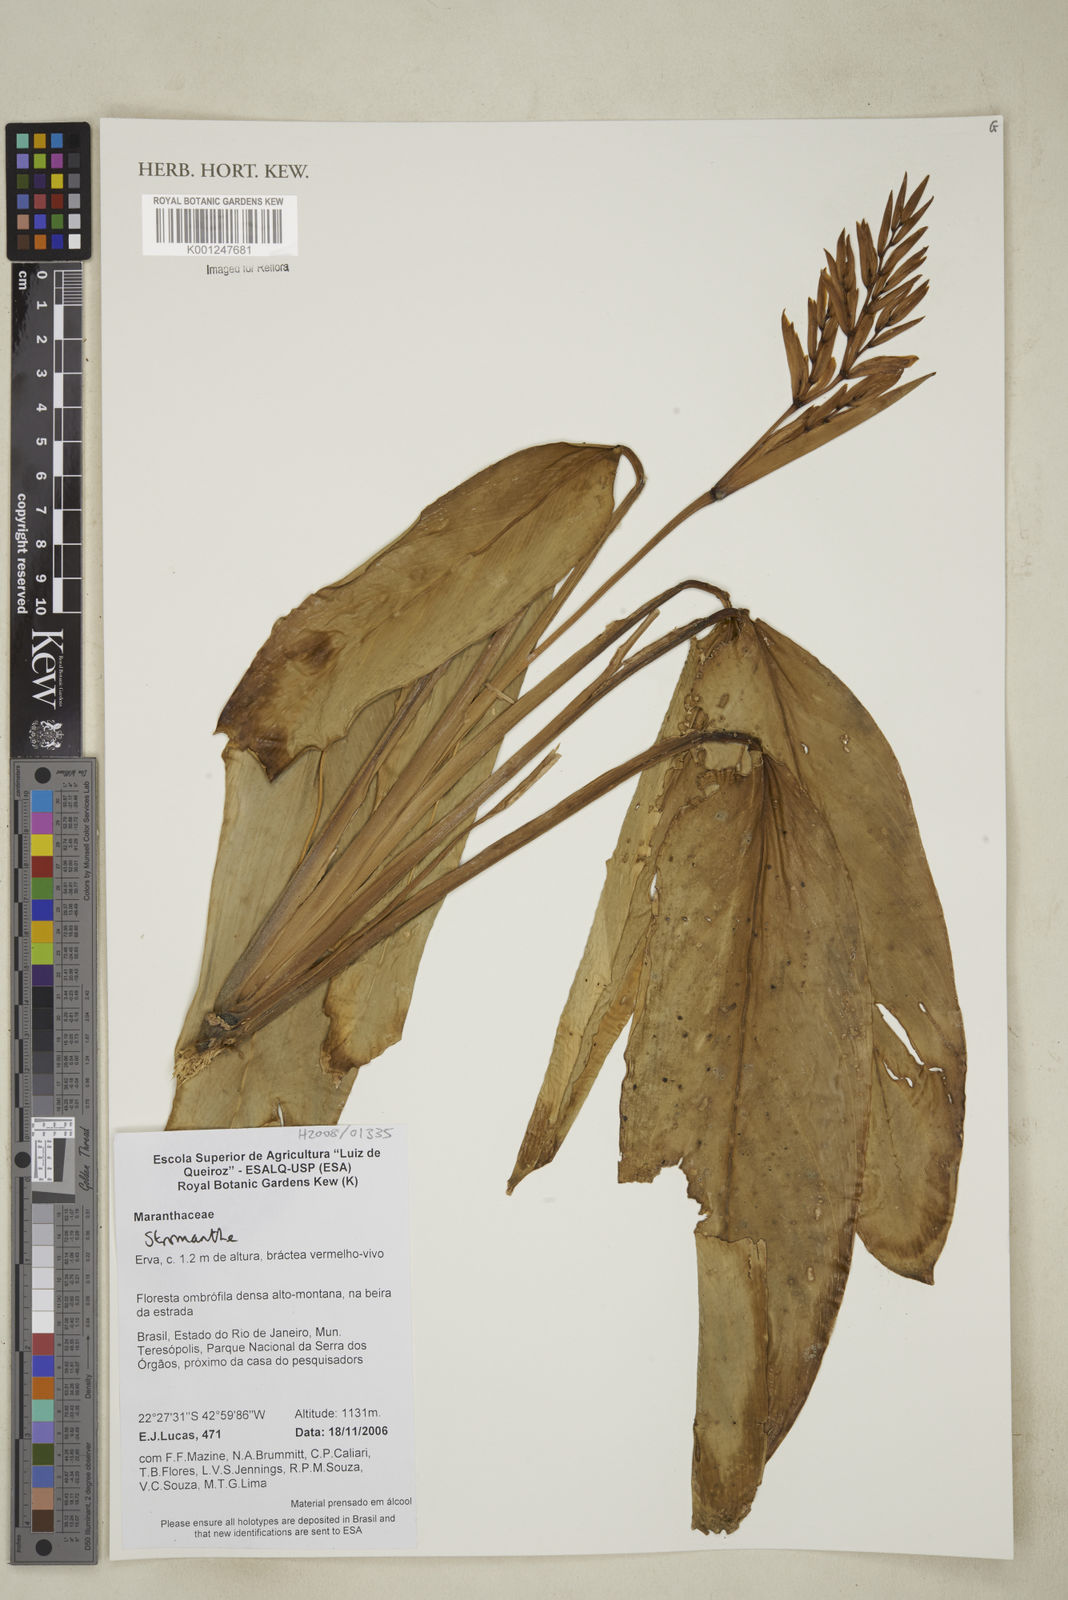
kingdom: Plantae
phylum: Tracheophyta
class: Liliopsida
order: Zingiberales
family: Marantaceae
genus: Stromanthe
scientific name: Stromanthe
